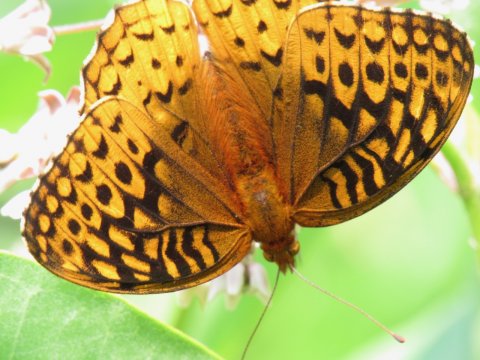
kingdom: Animalia
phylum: Arthropoda
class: Insecta
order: Lepidoptera
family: Nymphalidae
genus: Speyeria
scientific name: Speyeria cybele
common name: Great Spangled Fritillary
